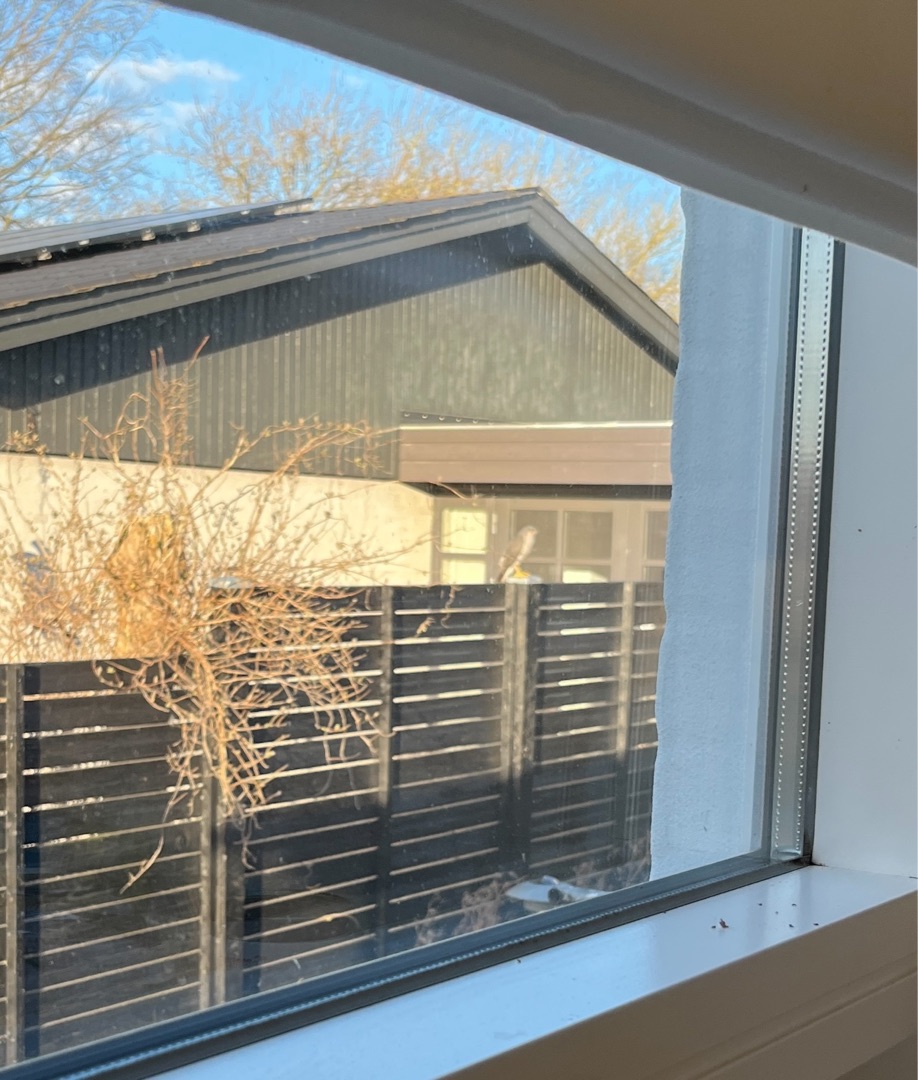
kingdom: Animalia
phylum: Chordata
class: Aves
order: Accipitriformes
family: Accipitridae
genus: Accipiter
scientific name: Accipiter nisus
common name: Spurvehøg
